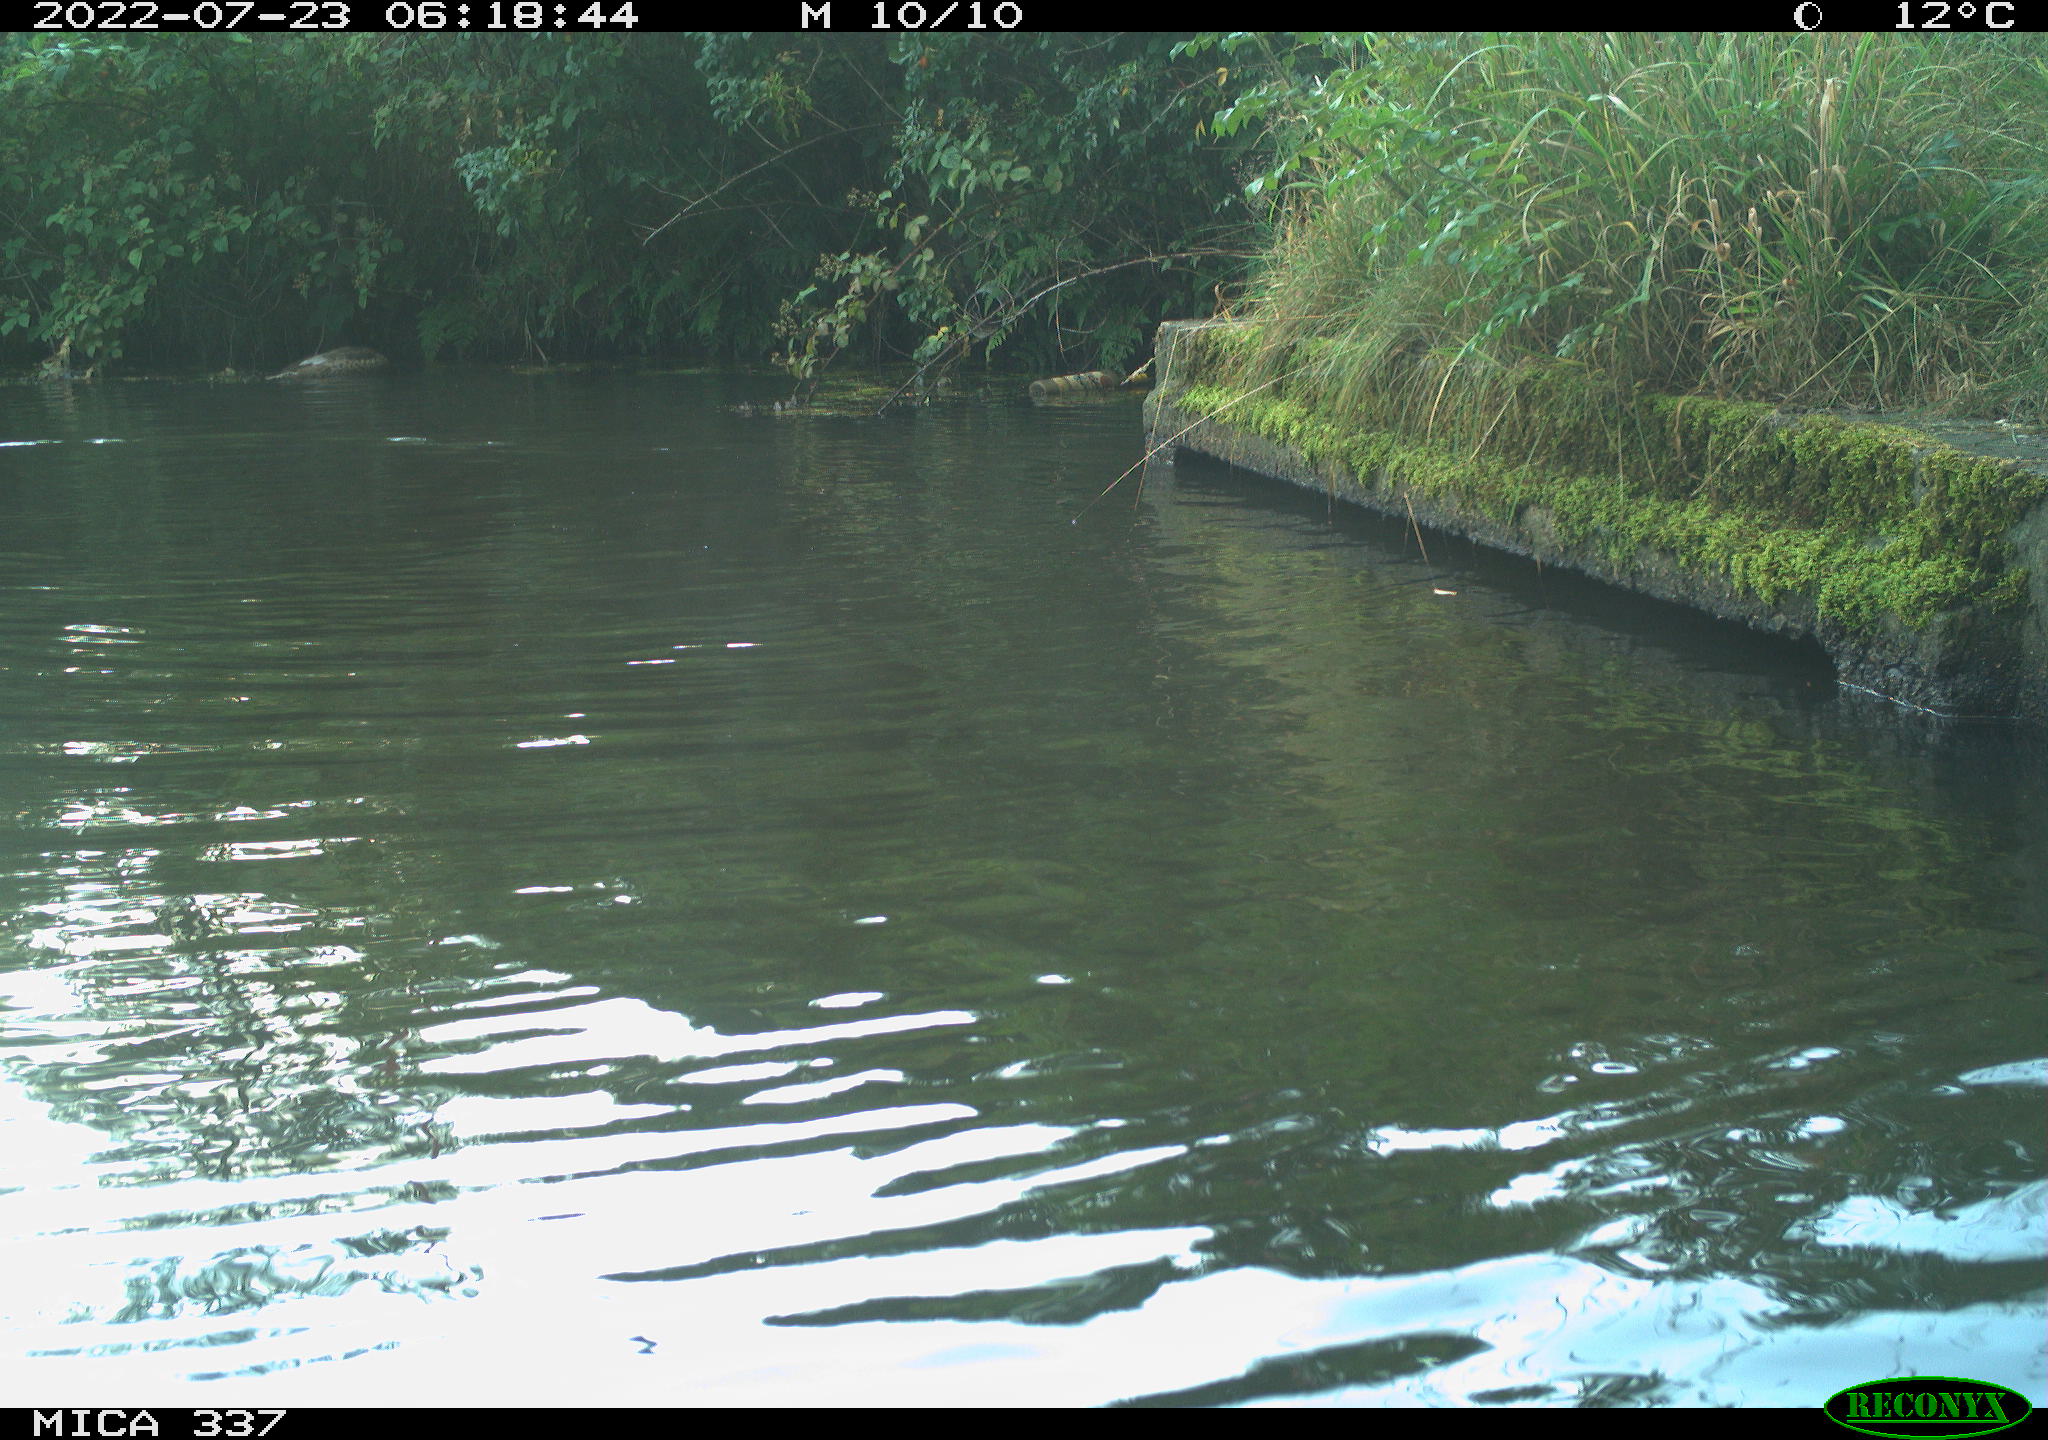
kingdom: Animalia
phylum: Chordata
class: Aves
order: Anseriformes
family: Anatidae
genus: Anas
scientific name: Anas platyrhynchos
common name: Mallard
